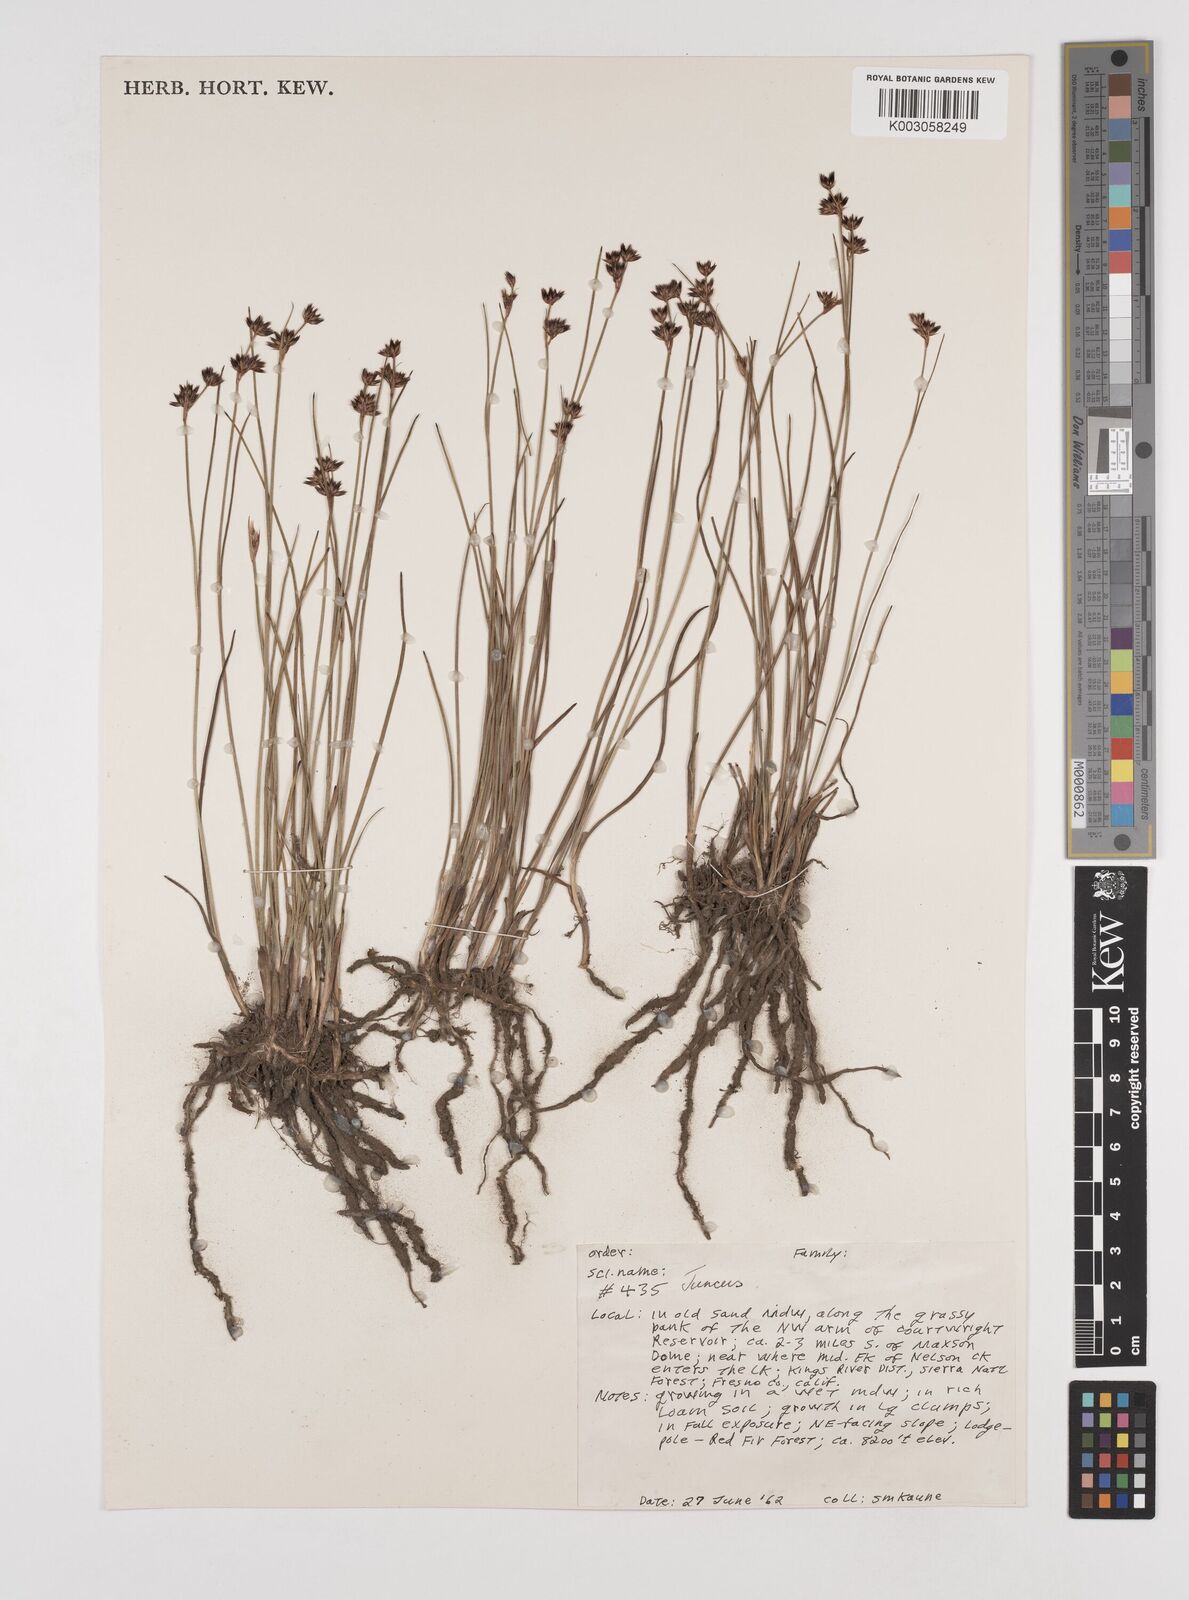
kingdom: Plantae
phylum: Tracheophyta
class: Liliopsida
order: Poales
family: Juncaceae
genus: Juncus
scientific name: Juncus
